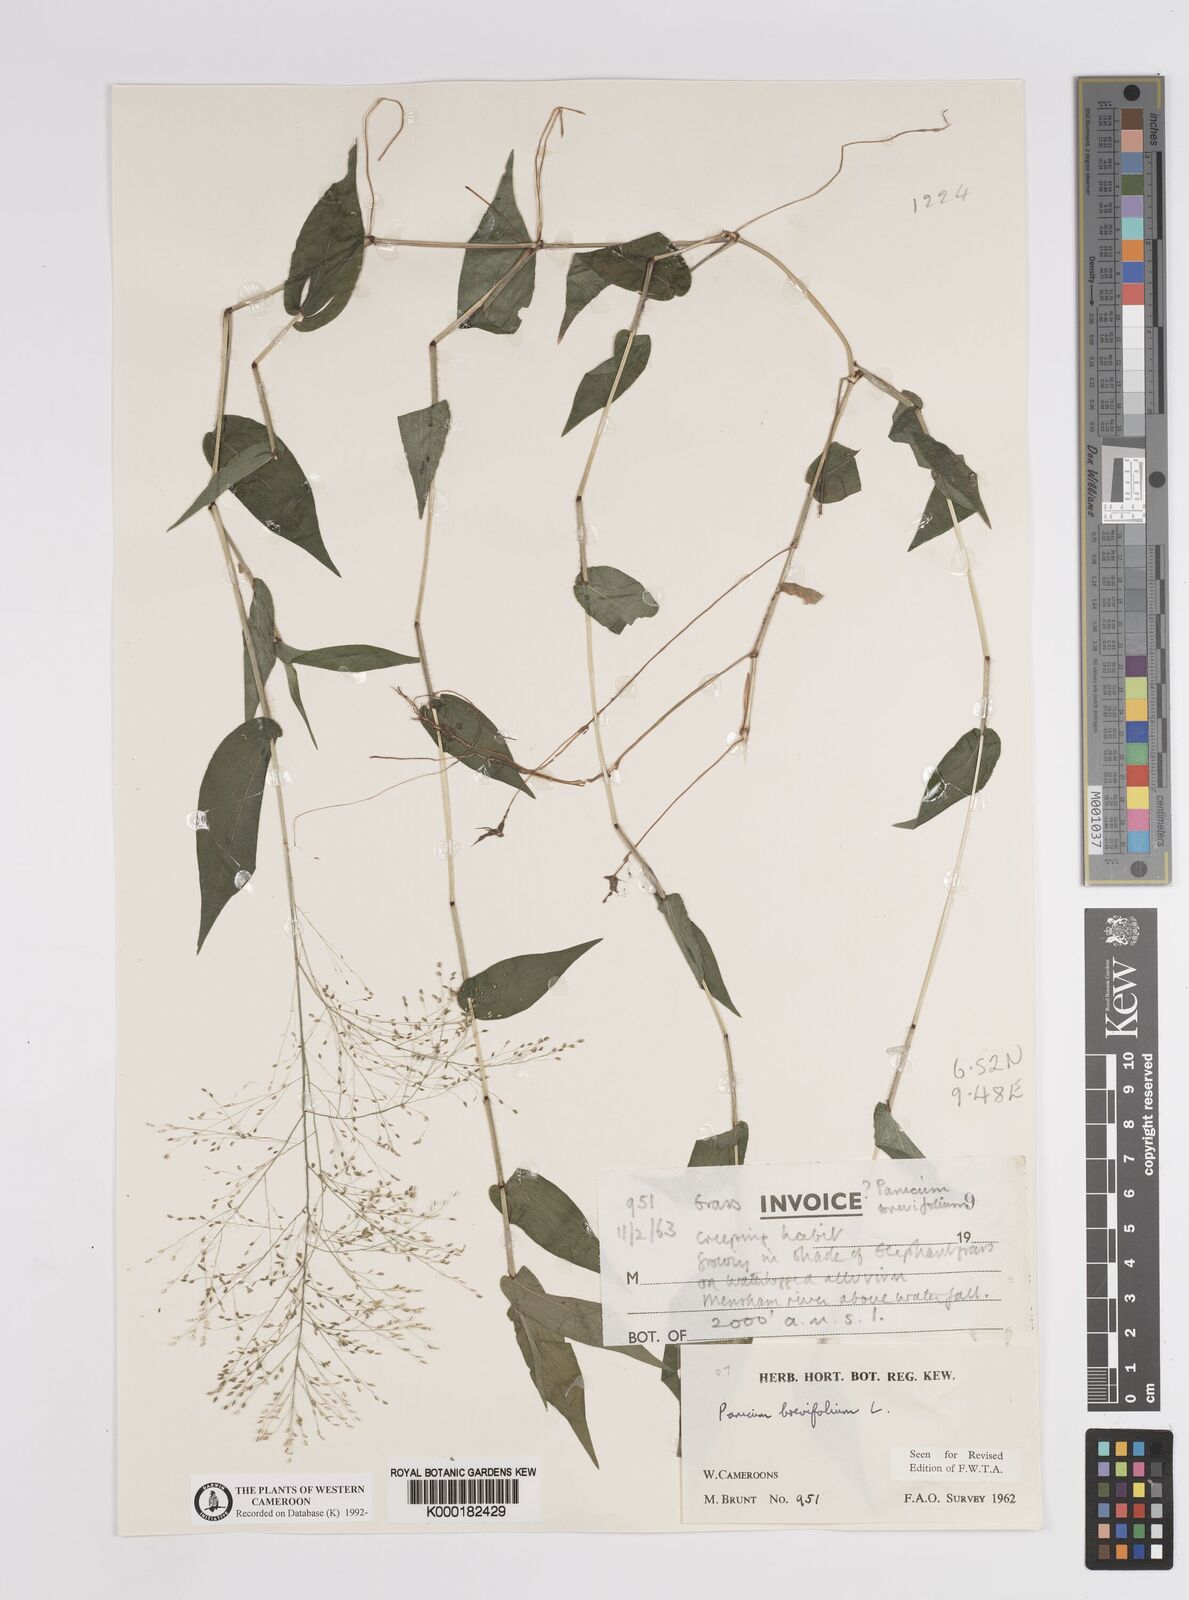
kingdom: Plantae
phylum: Tracheophyta
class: Liliopsida
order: Poales
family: Poaceae
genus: Panicum
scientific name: Panicum brevifolium
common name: Shortleaf panic grass
